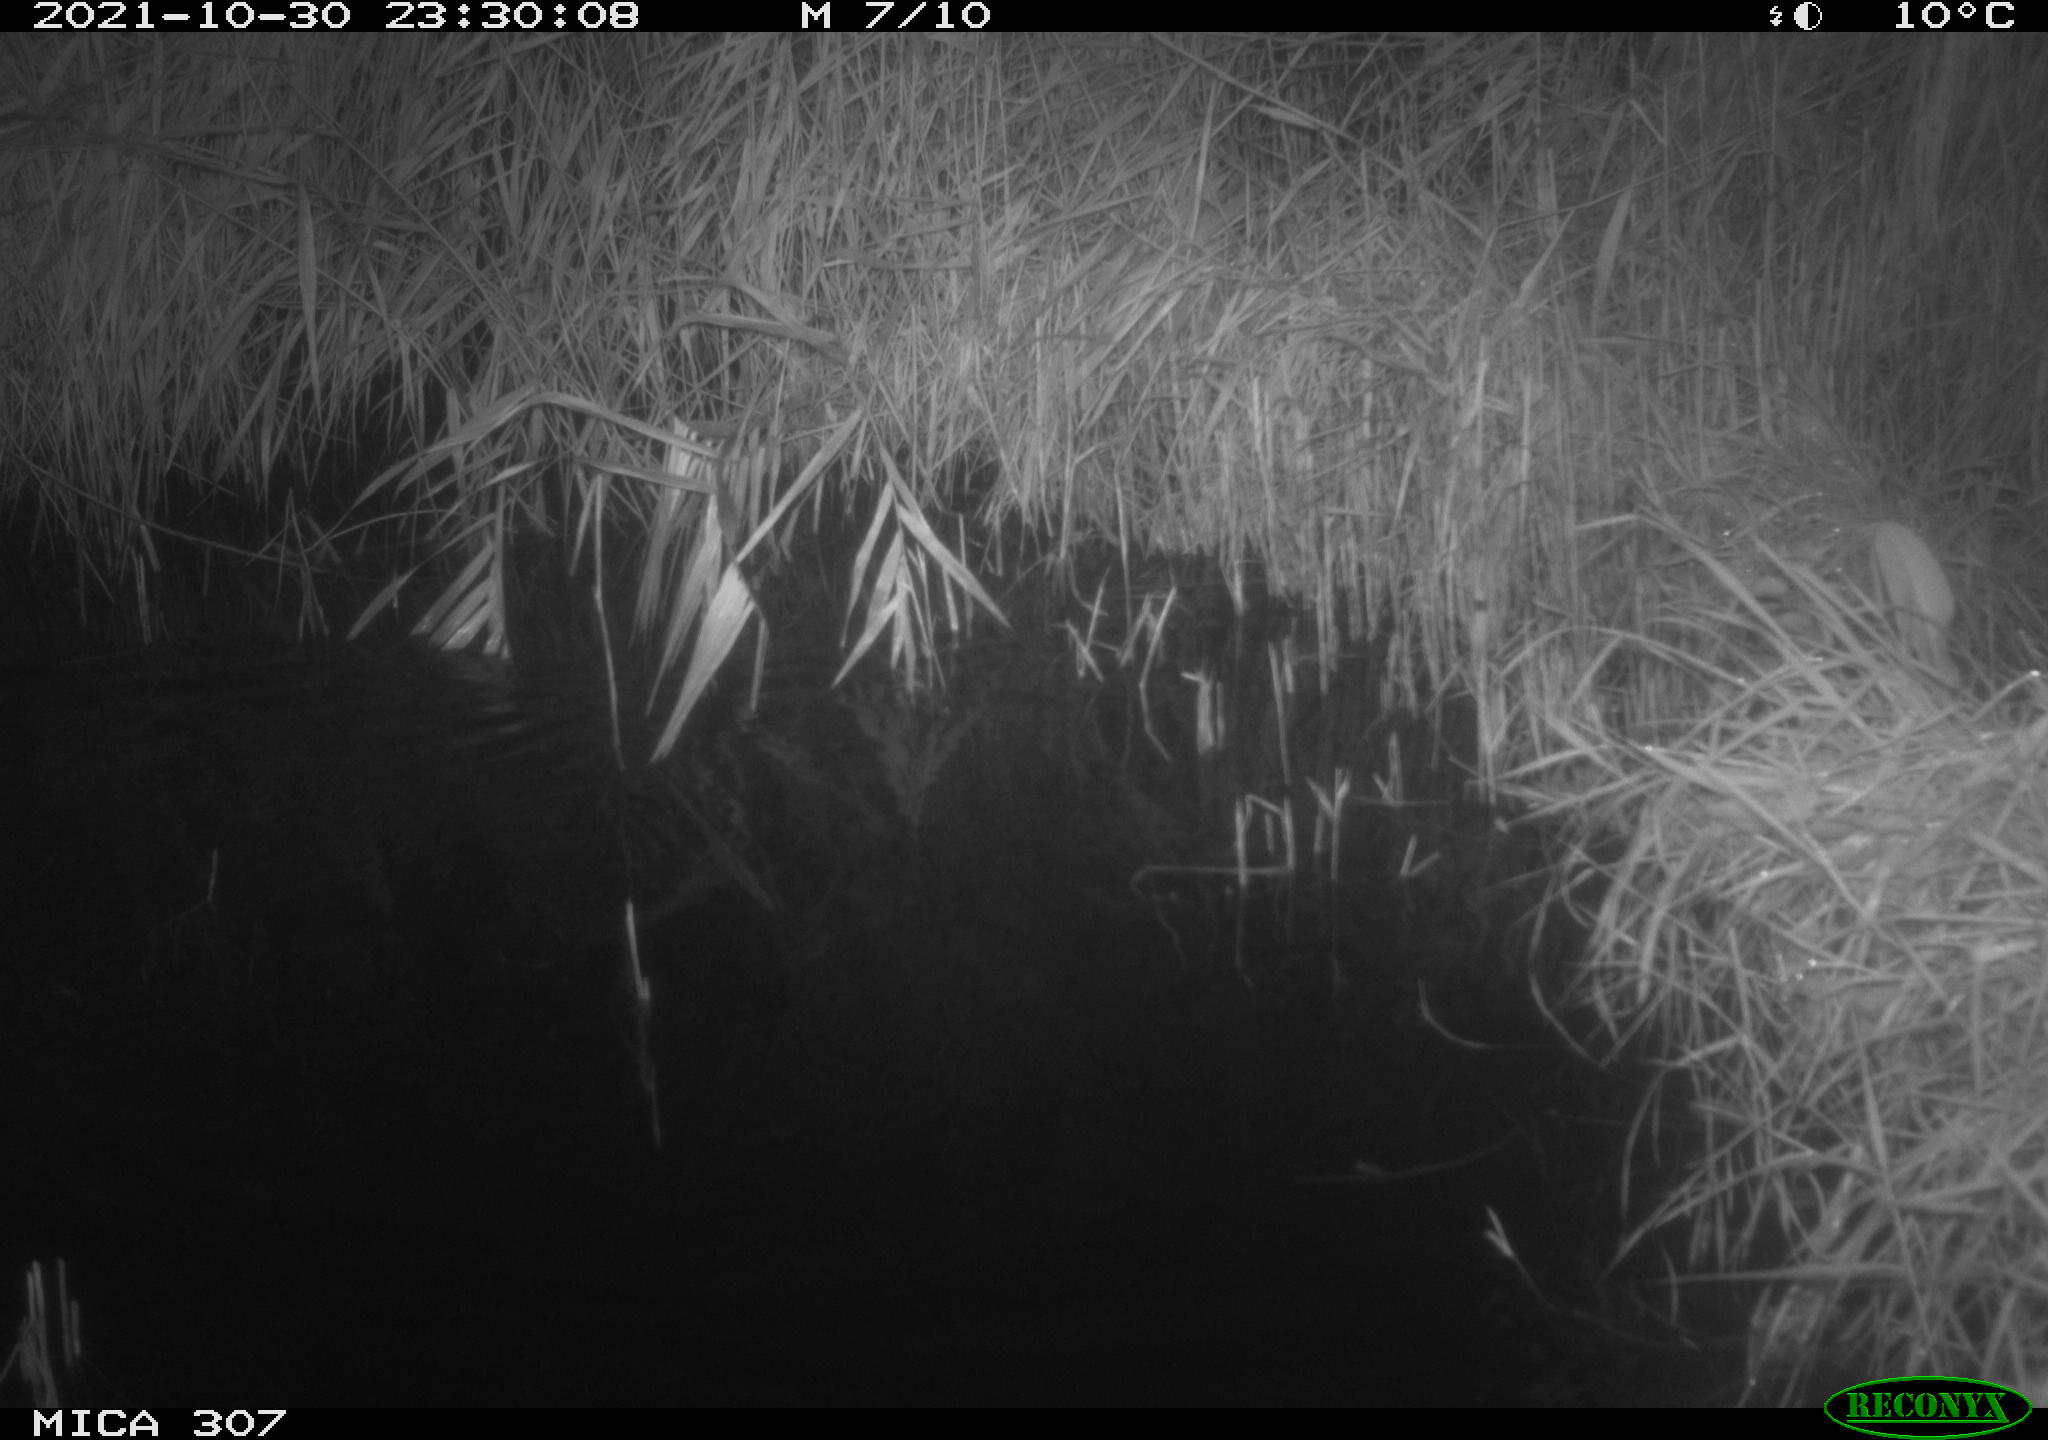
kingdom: Animalia
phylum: Chordata
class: Mammalia
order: Rodentia
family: Muridae
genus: Rattus
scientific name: Rattus norvegicus
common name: Brown rat
